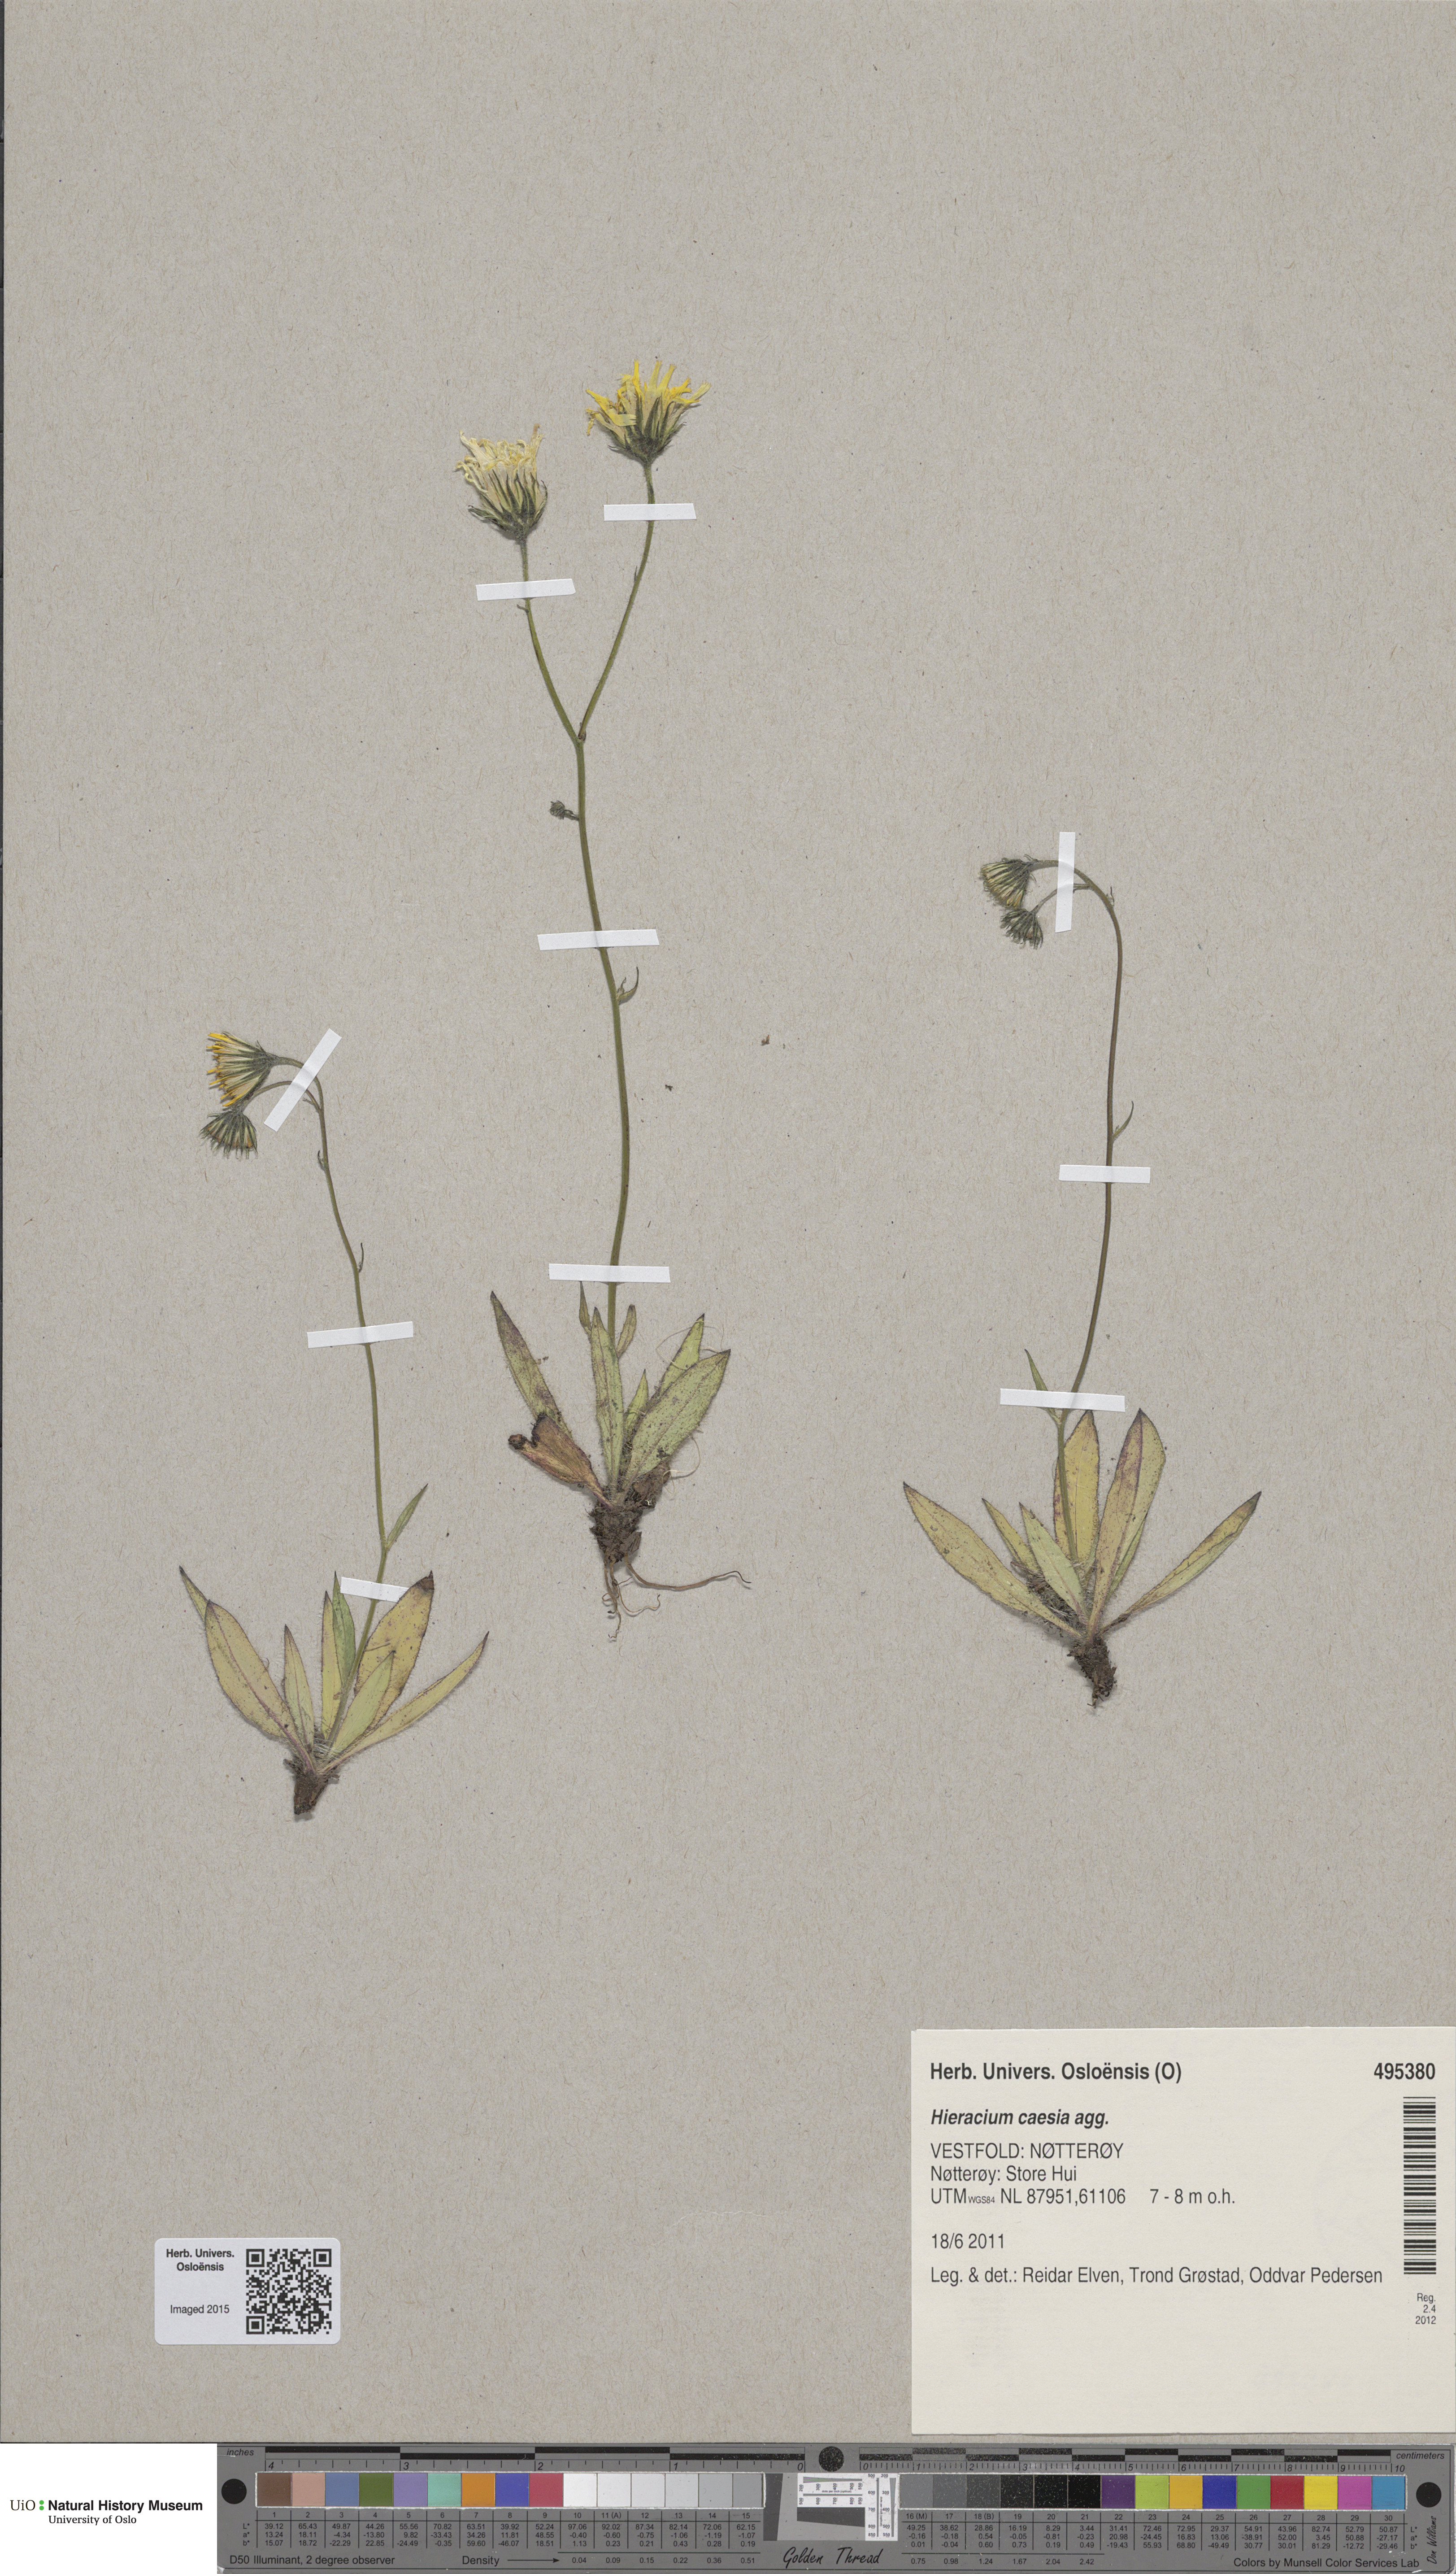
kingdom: Plantae
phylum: Tracheophyta
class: Magnoliopsida
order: Asterales
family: Asteraceae
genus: Hieracium
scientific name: Hieracium caesium
